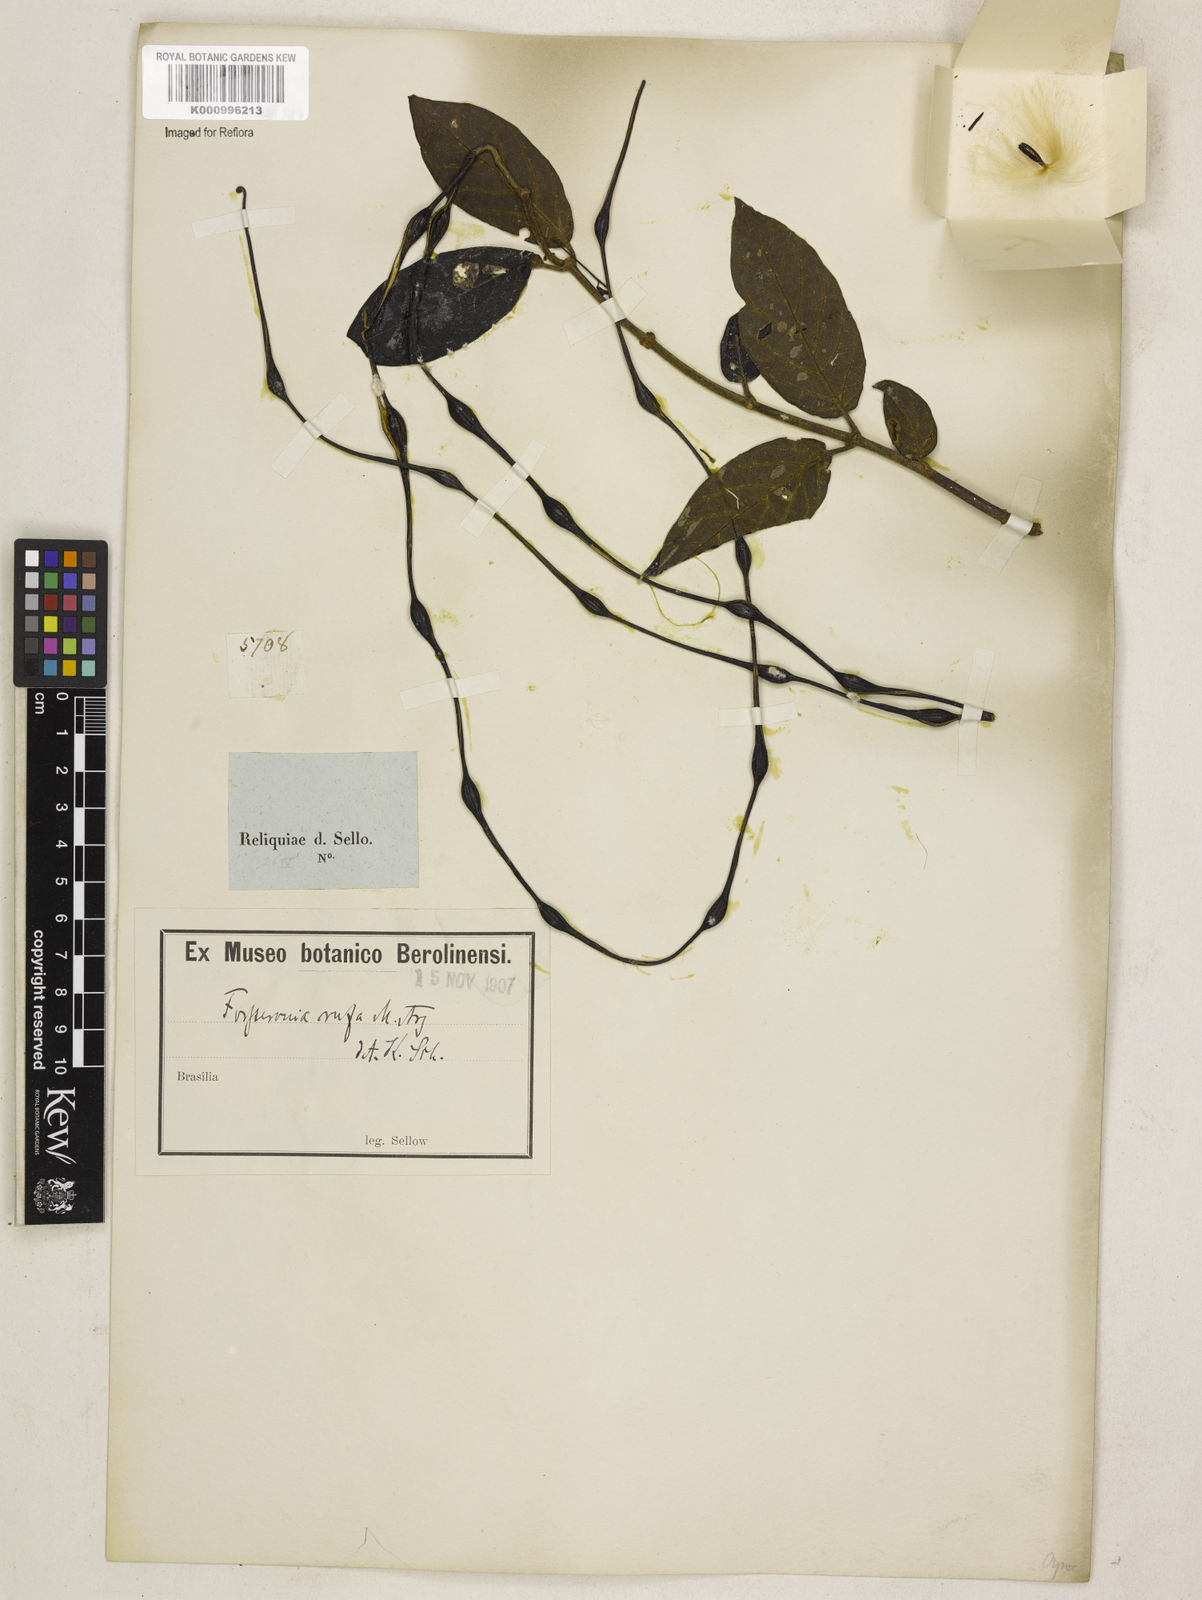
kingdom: Plantae
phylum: Tracheophyta
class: Magnoliopsida
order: Gentianales
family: Apocynaceae
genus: Forsteronia
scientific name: Forsteronia
